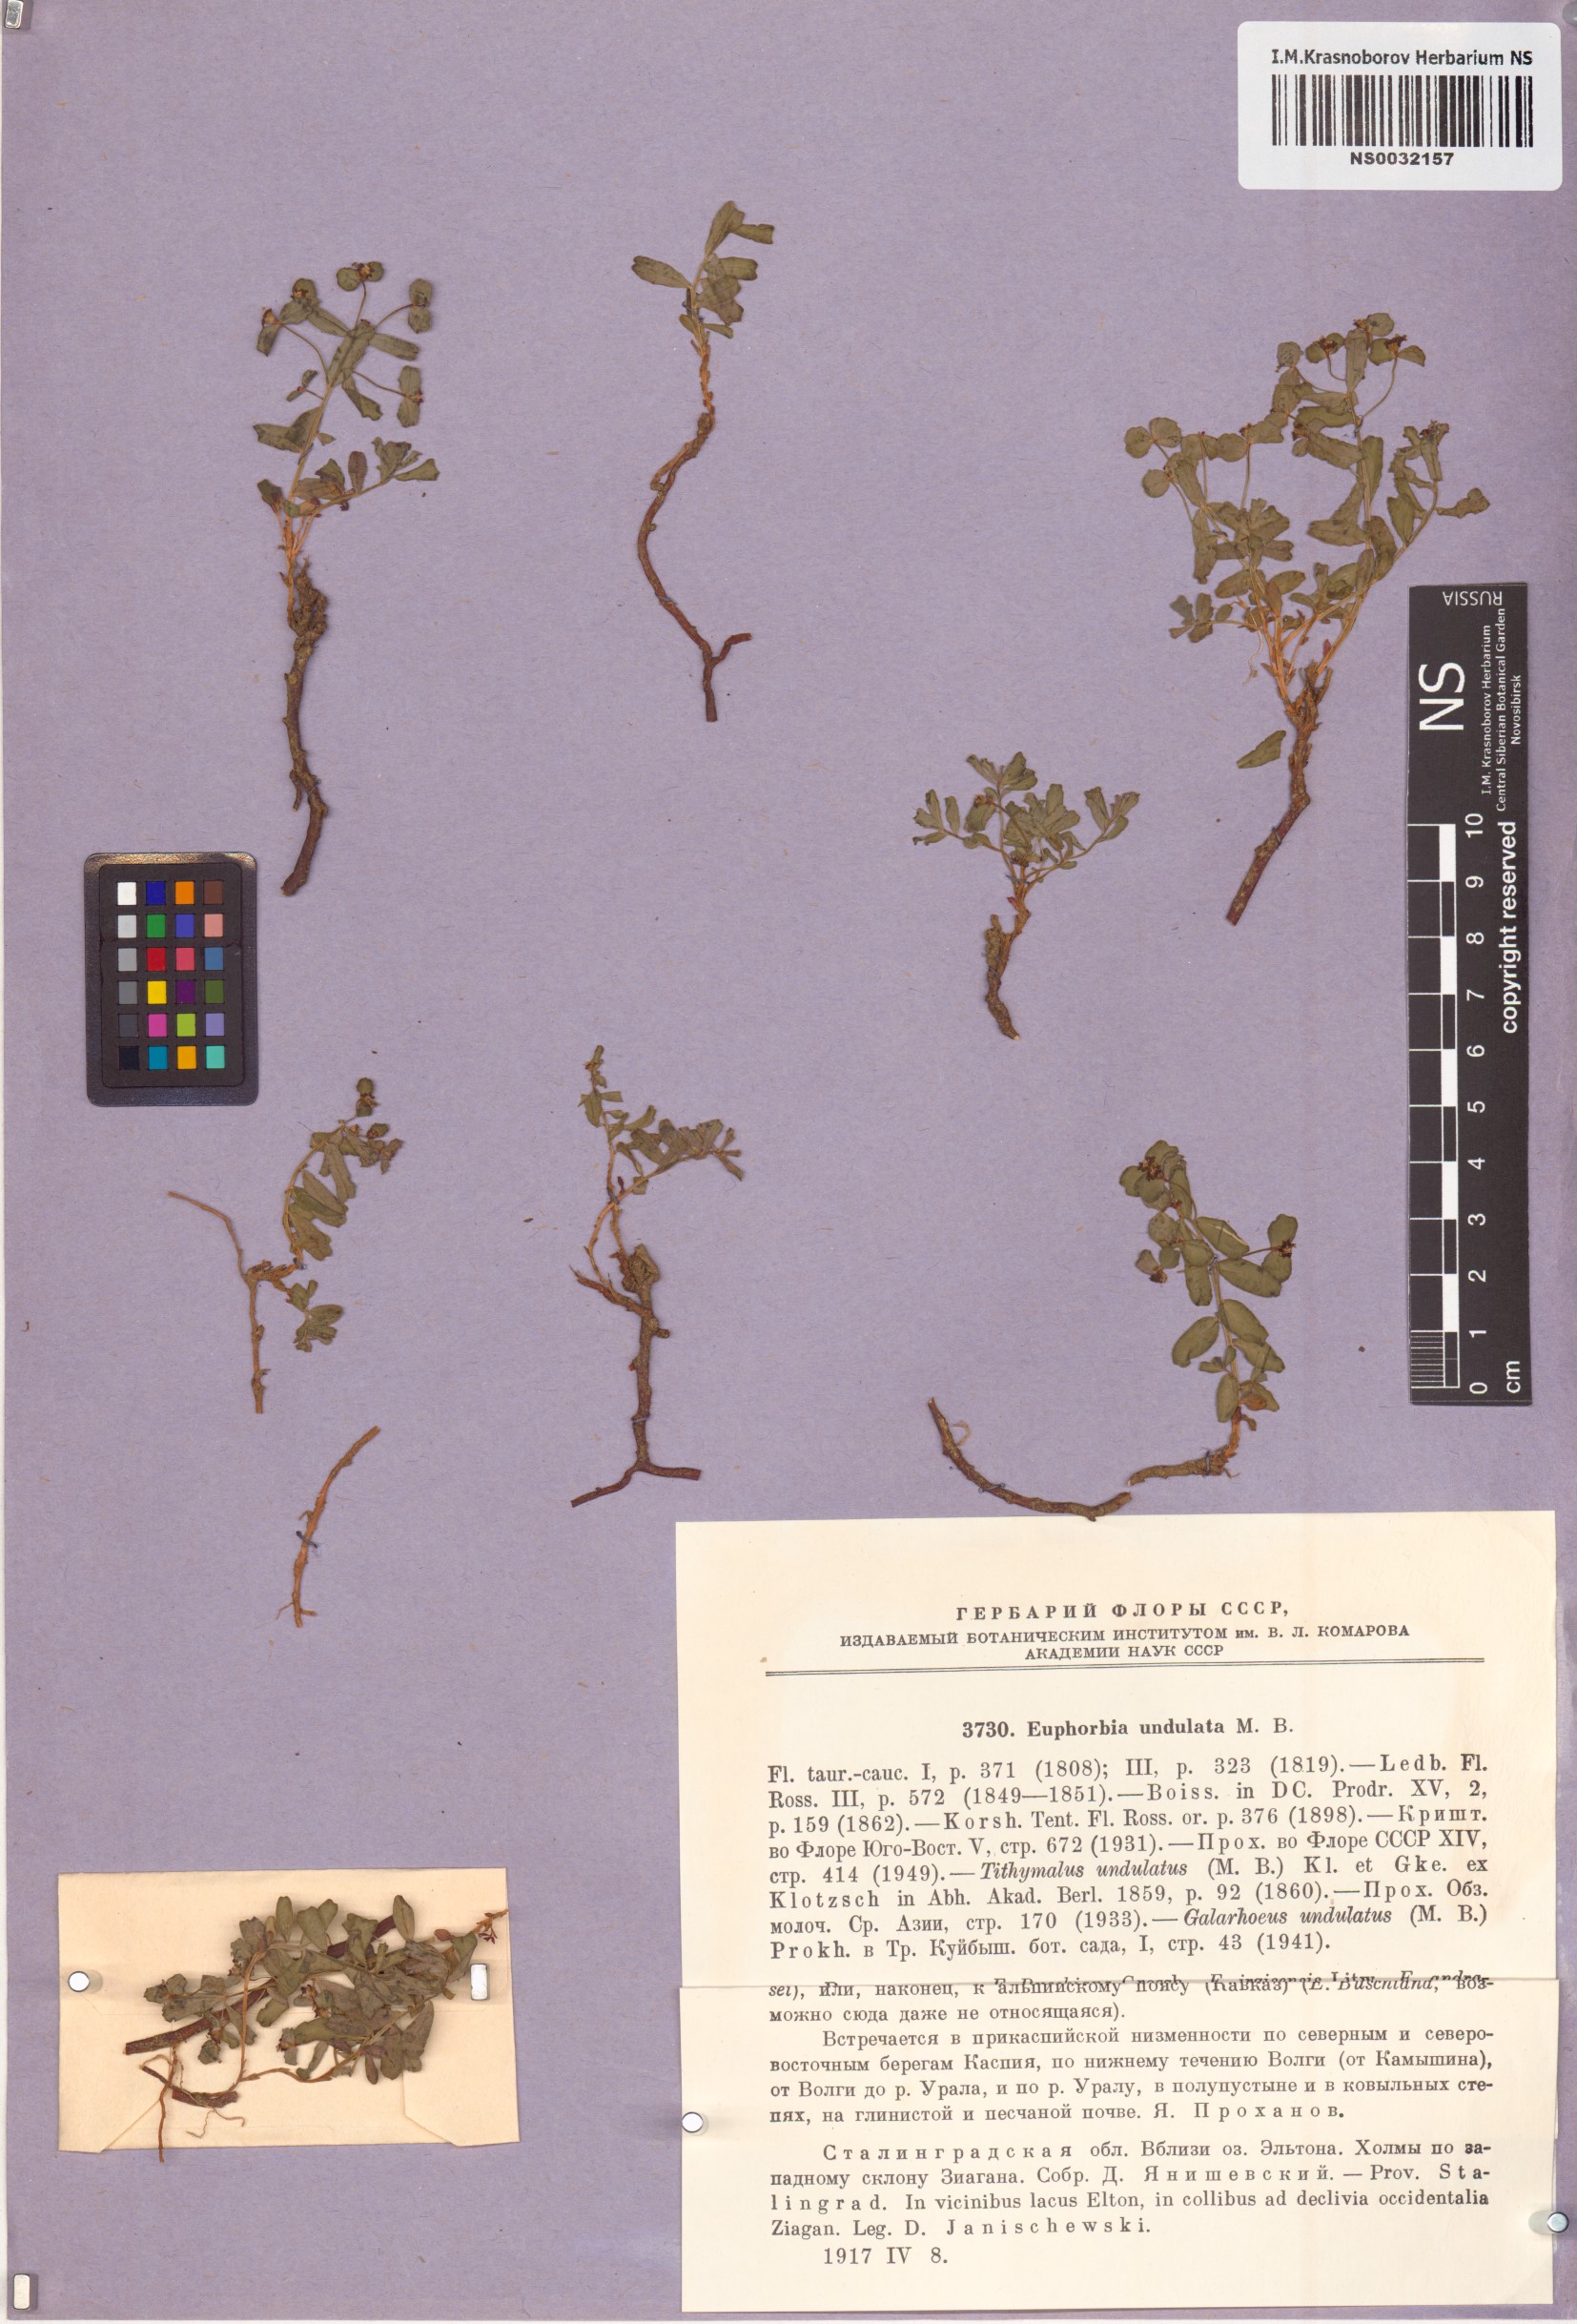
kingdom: Plantae
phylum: Tracheophyta
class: Magnoliopsida
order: Malpighiales
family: Euphorbiaceae
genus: Euphorbia
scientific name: Euphorbia undulata
